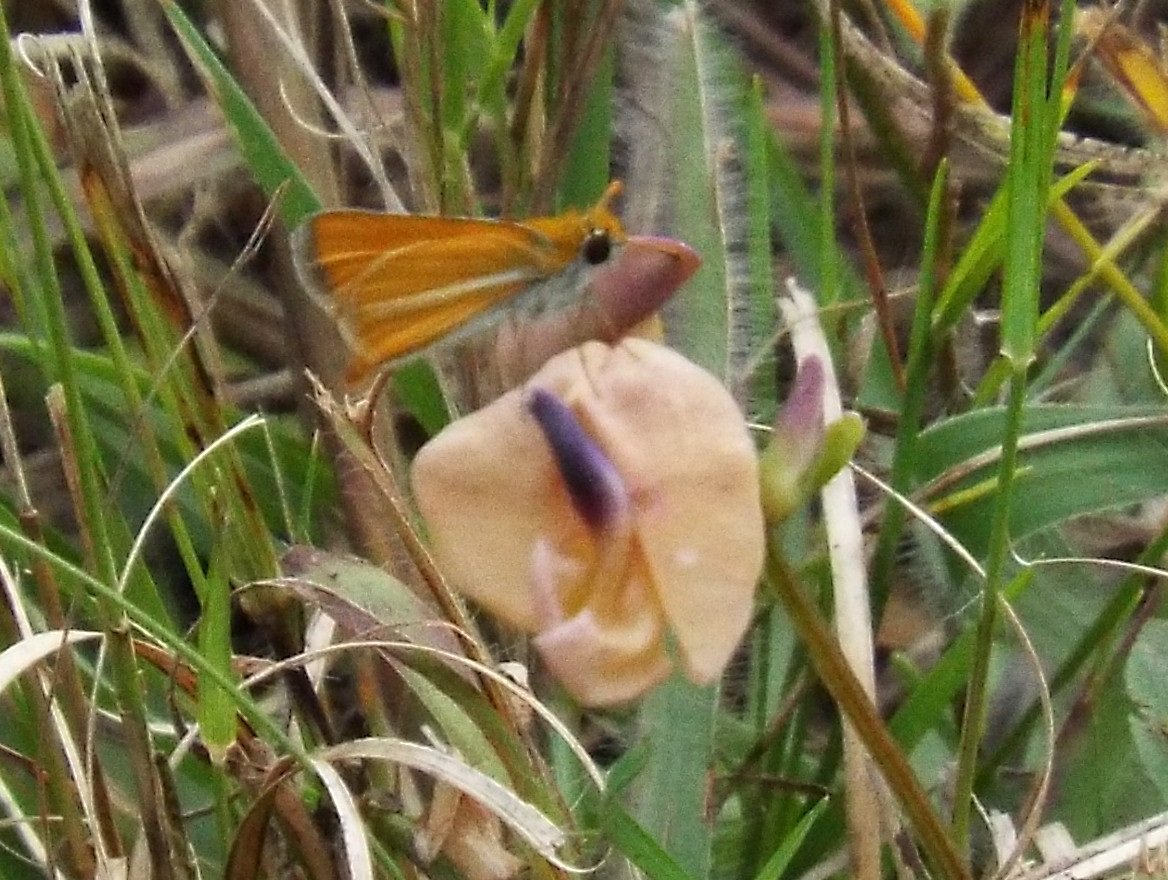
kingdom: Animalia
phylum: Arthropoda
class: Insecta
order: Lepidoptera
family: Hesperiidae
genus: Copaeodes
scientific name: Copaeodes minima
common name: Southern Skipperling
